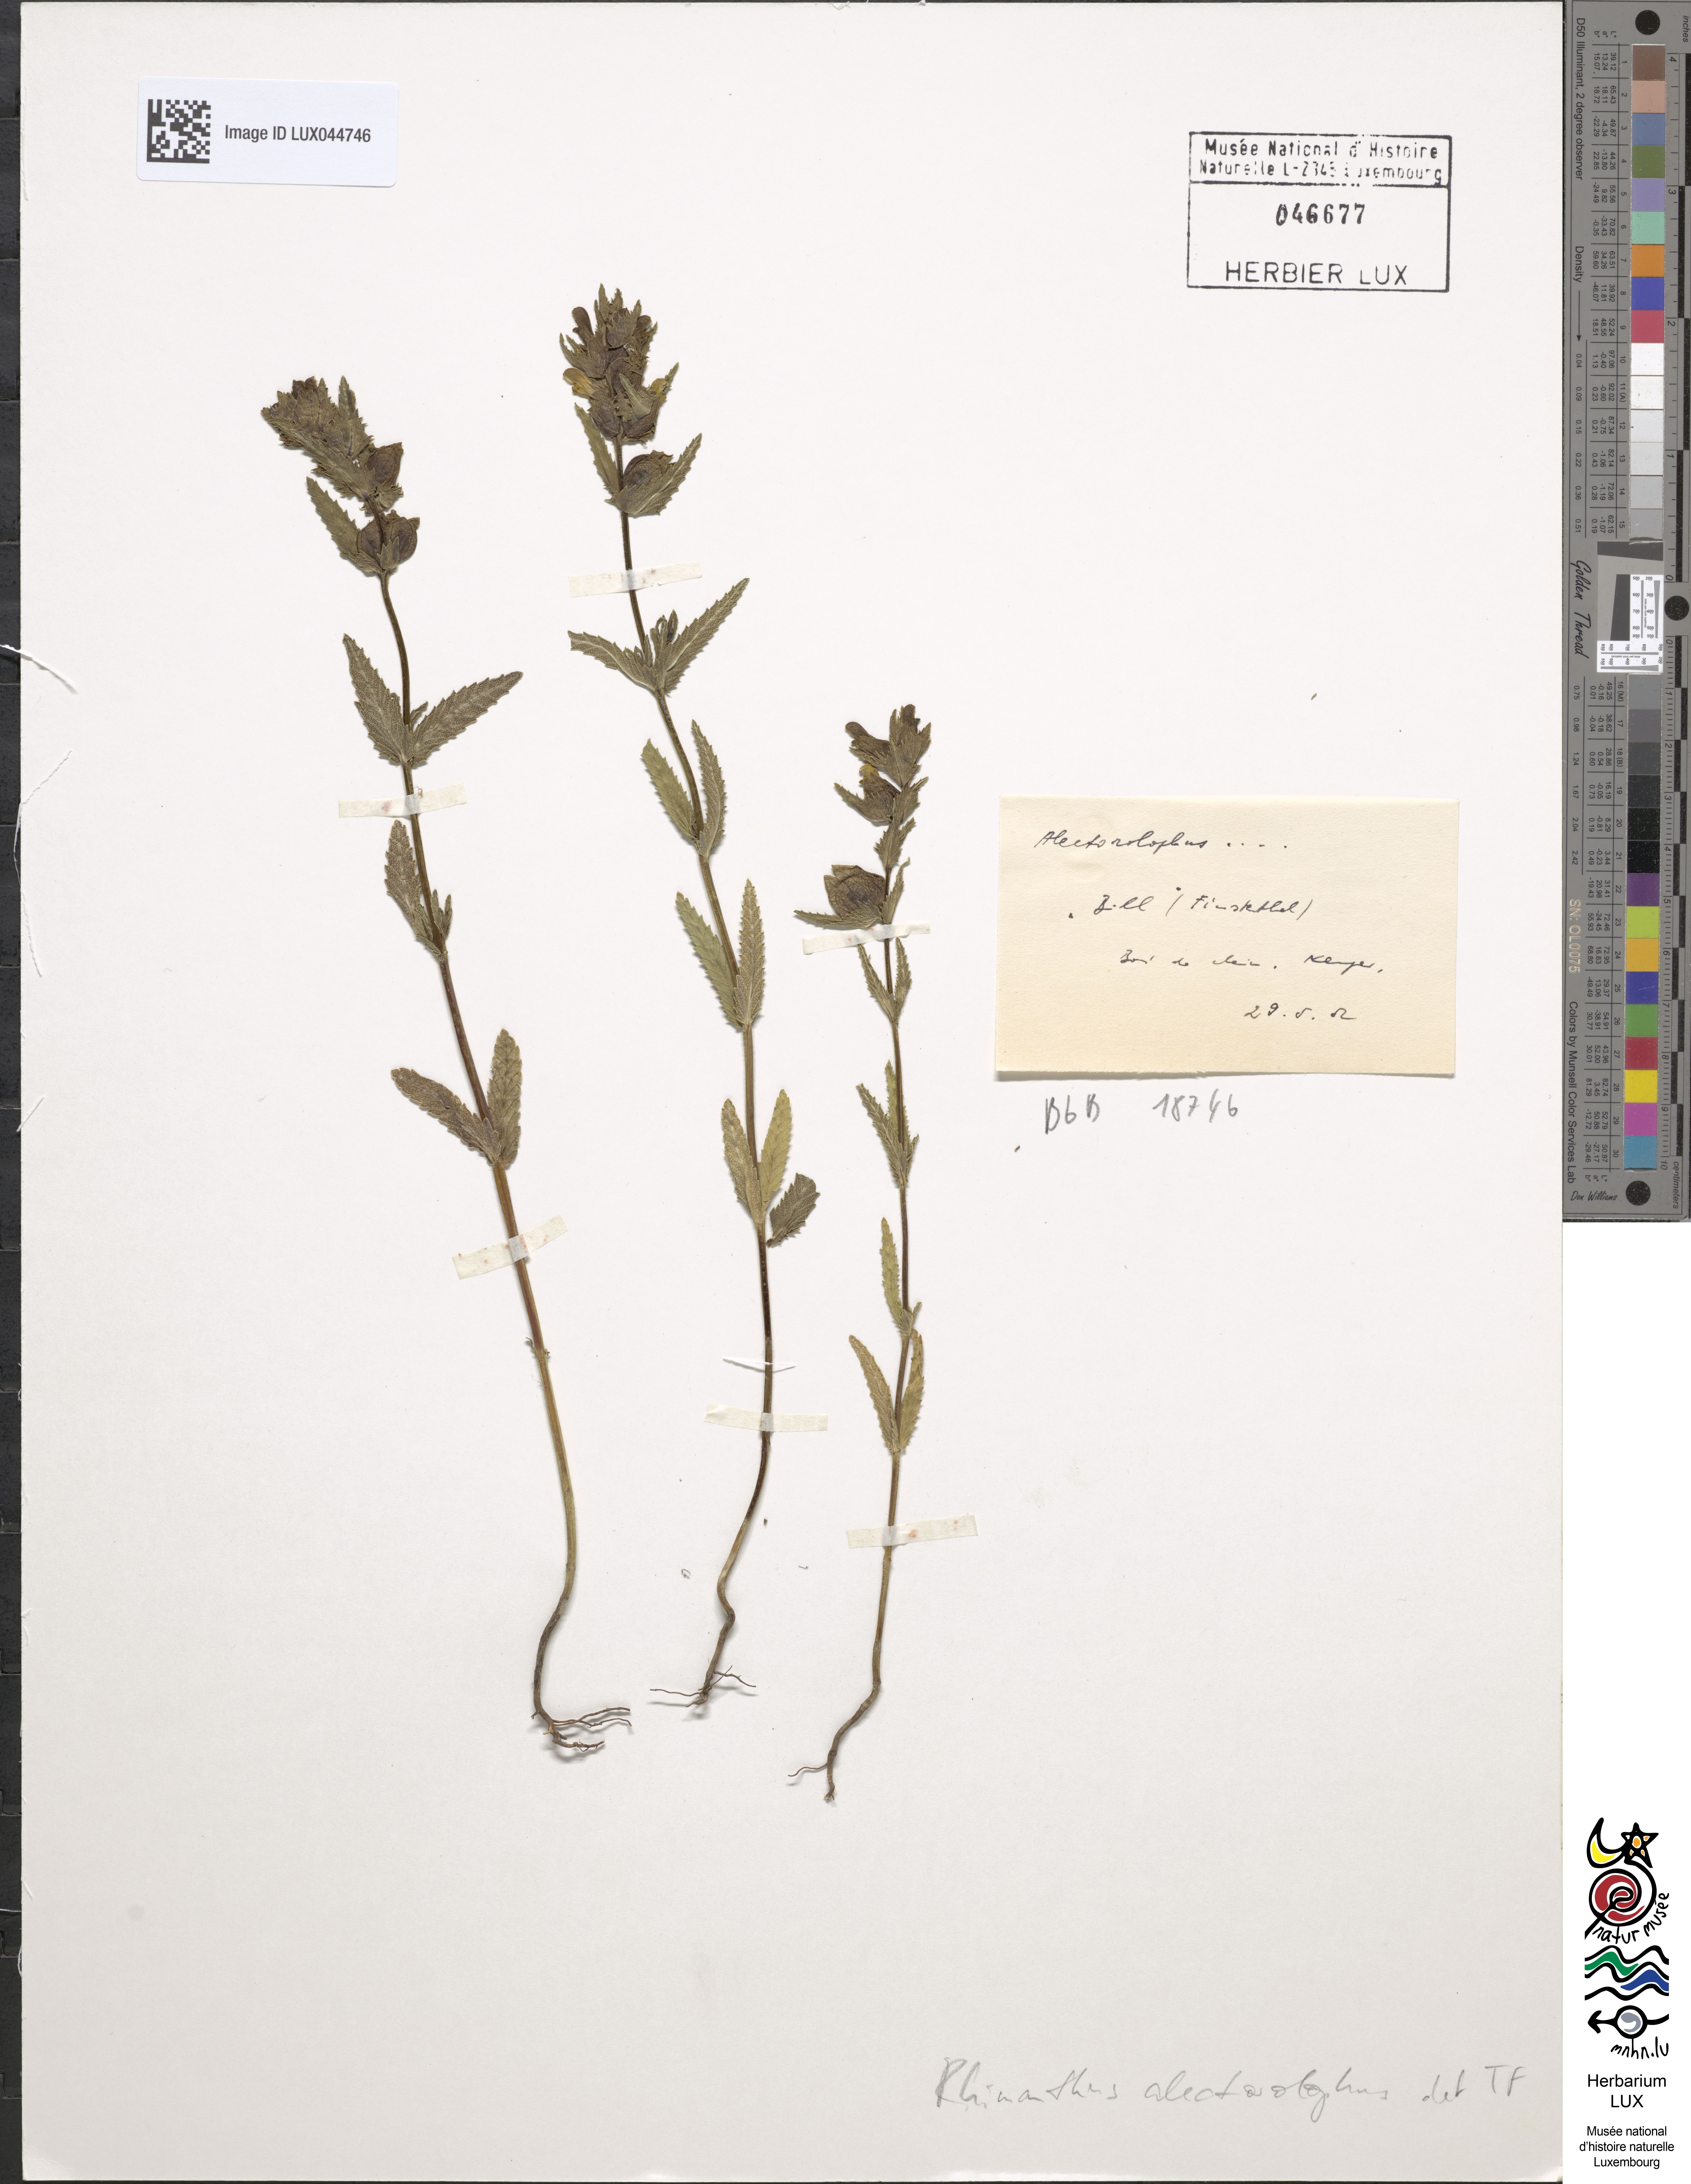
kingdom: Plantae
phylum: Tracheophyta
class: Magnoliopsida
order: Lamiales
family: Orobanchaceae
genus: Rhinanthus
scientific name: Rhinanthus alectorolophus
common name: Greater yellow-rattle
